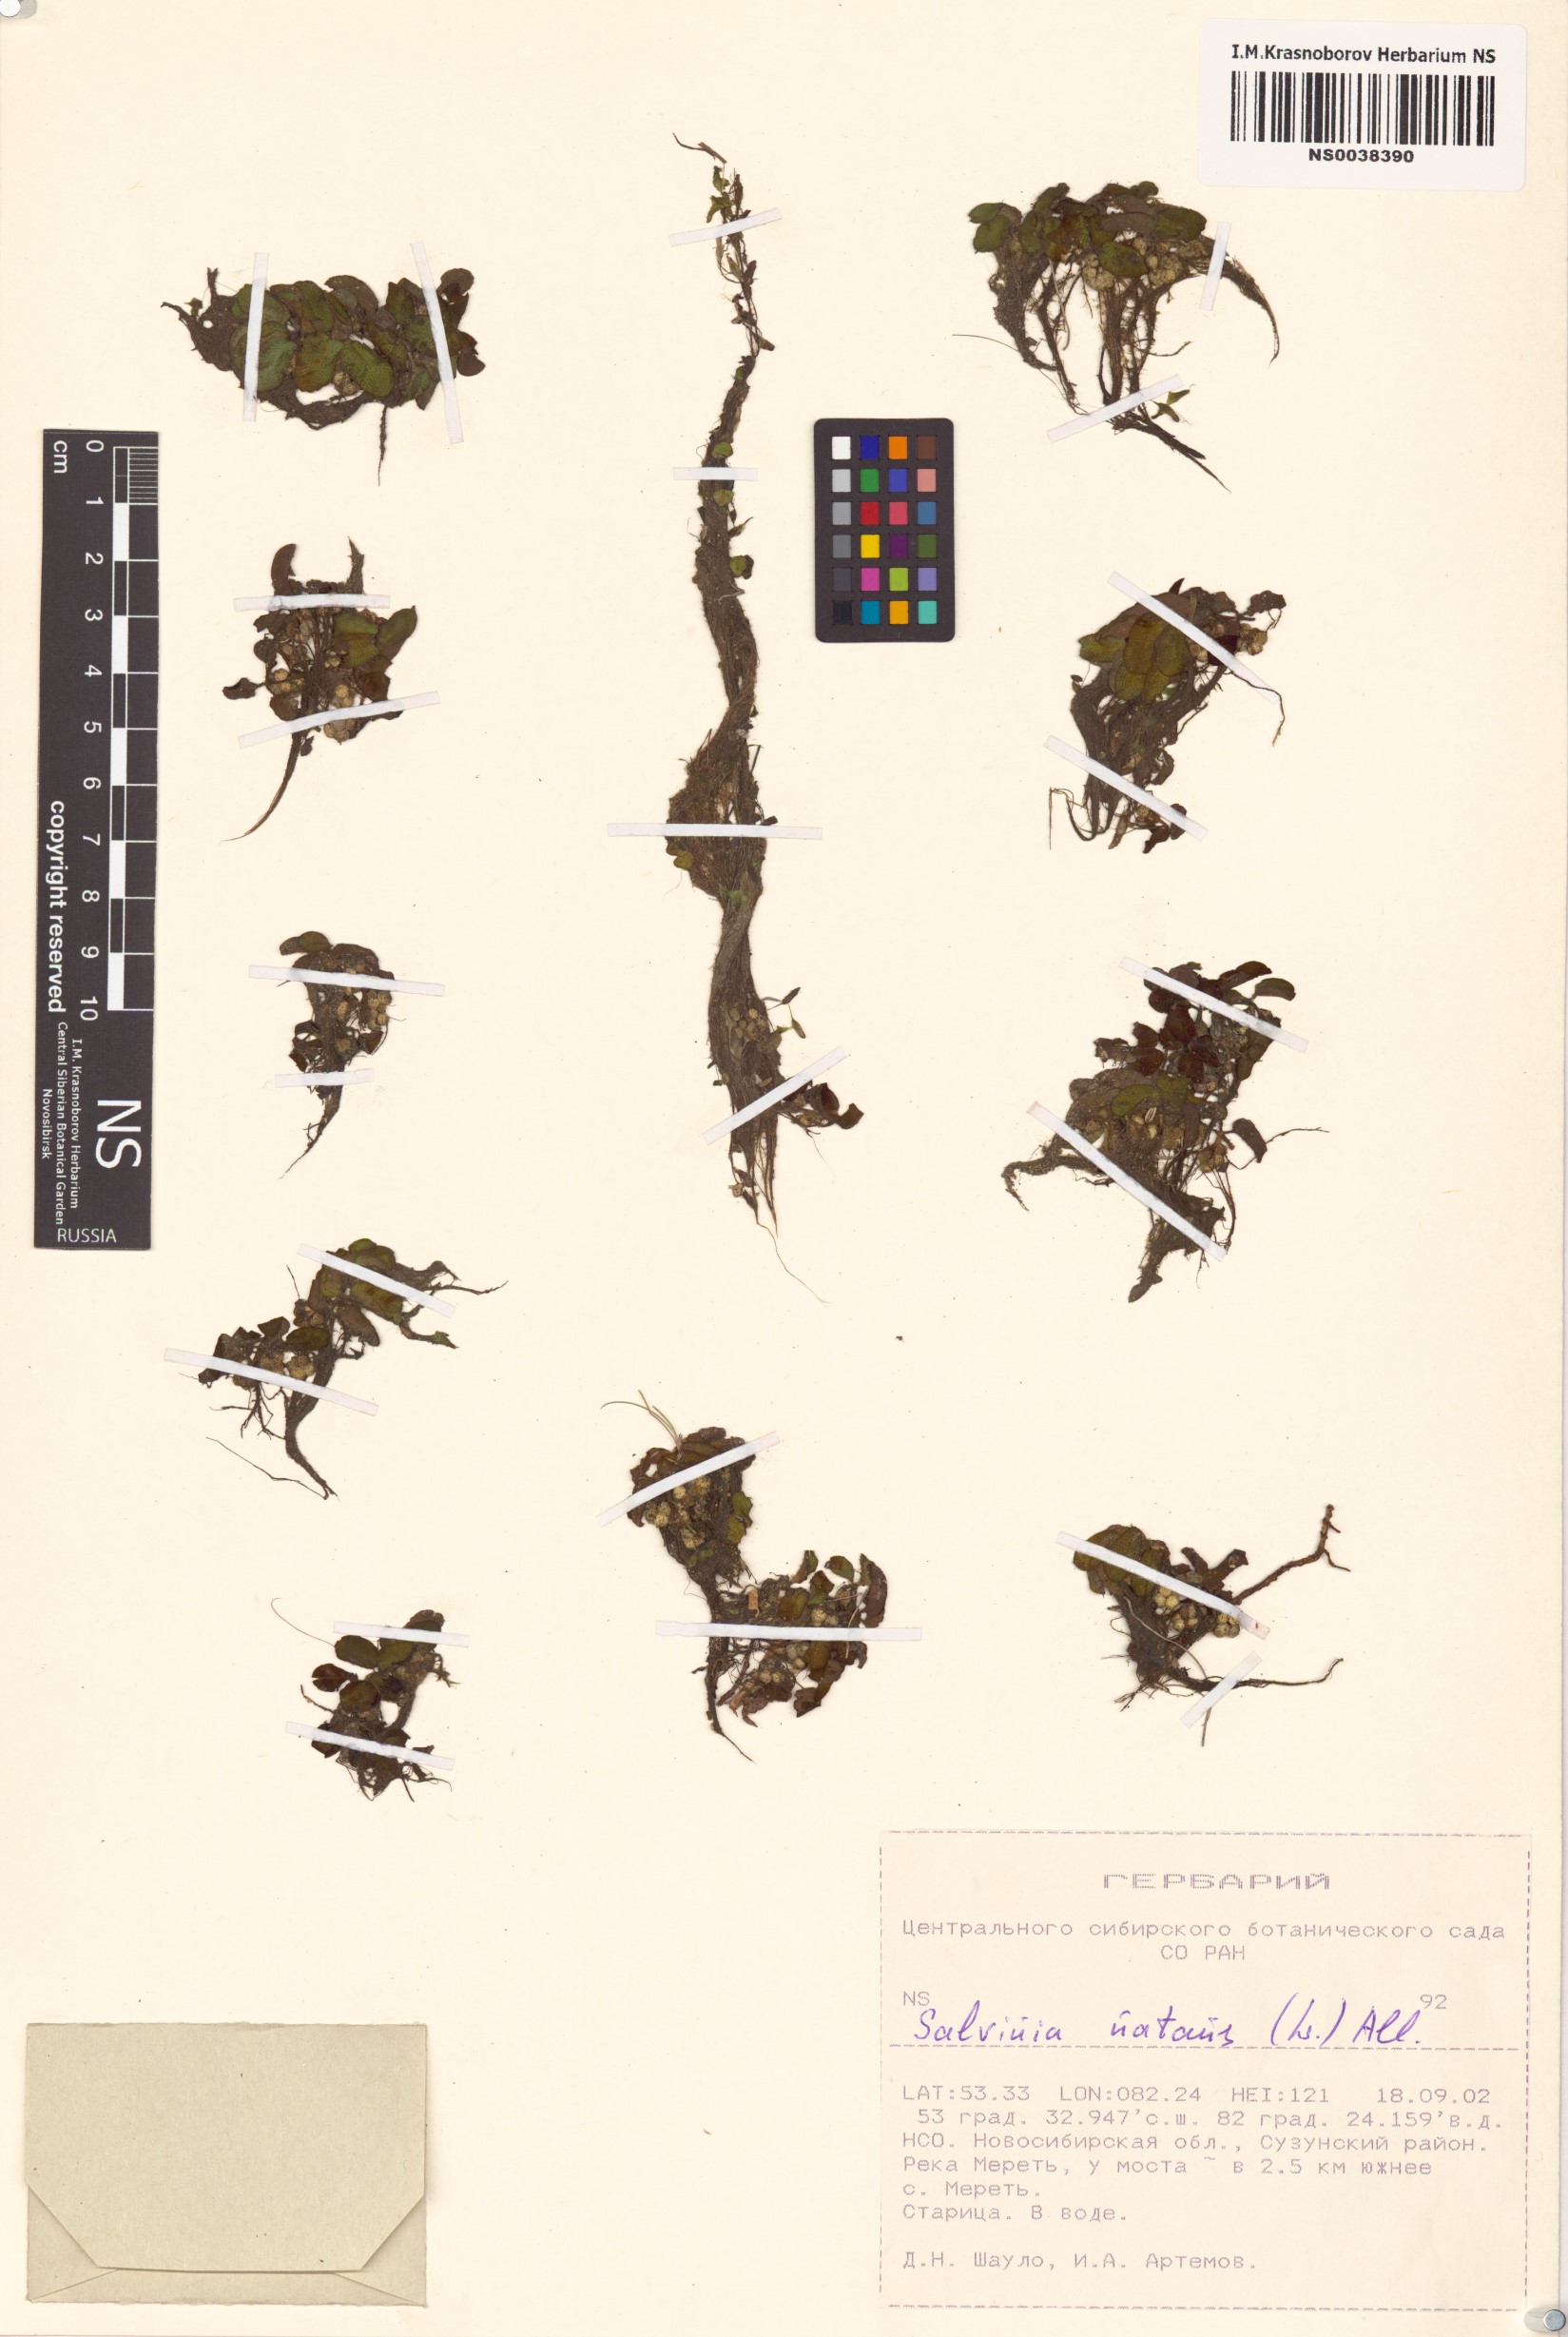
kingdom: Plantae
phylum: Tracheophyta
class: Polypodiopsida
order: Salviniales
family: Salviniaceae
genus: Salvinia
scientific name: Salvinia natans
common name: Floating fern
